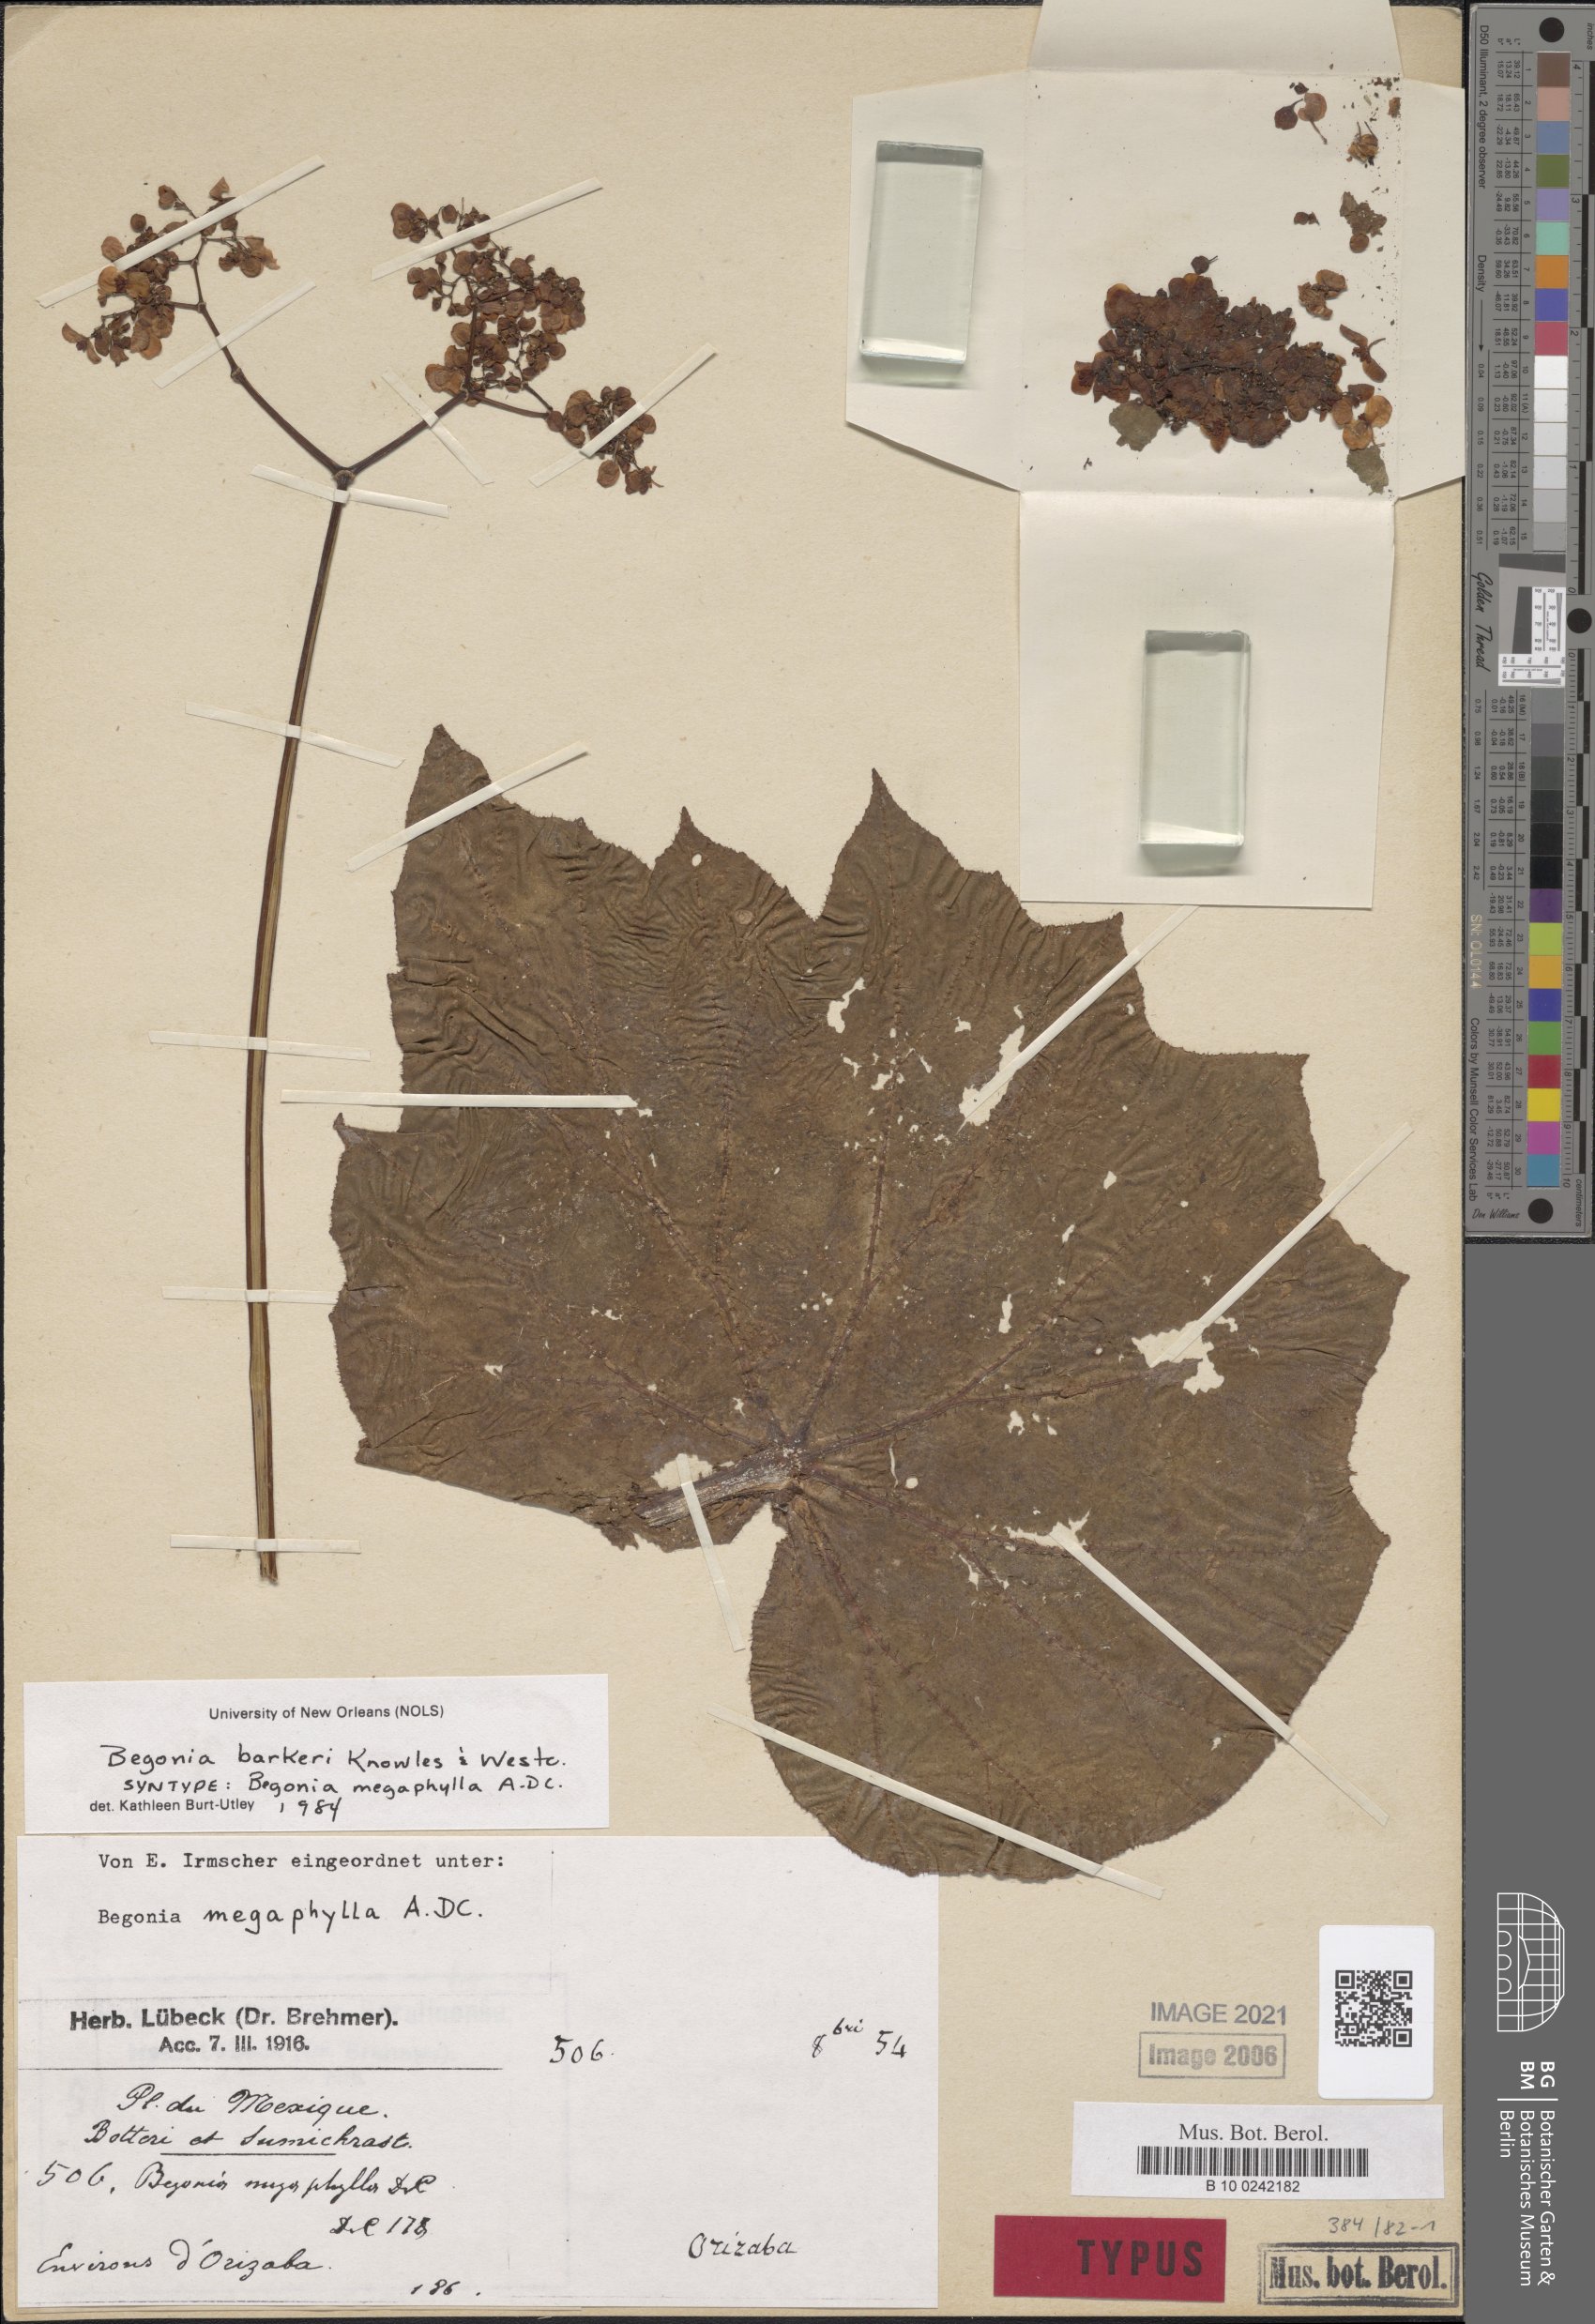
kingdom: Plantae
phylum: Tracheophyta
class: Magnoliopsida
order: Cucurbitales
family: Begoniaceae
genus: Begonia
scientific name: Begonia barkeri
